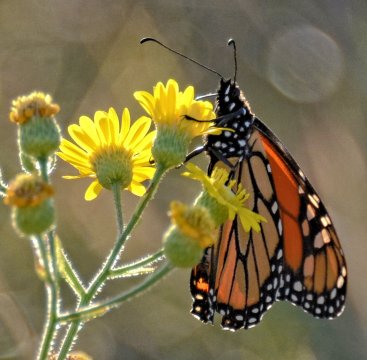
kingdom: Animalia
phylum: Arthropoda
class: Insecta
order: Lepidoptera
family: Nymphalidae
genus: Danaus
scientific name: Danaus plexippus
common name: Monarch
